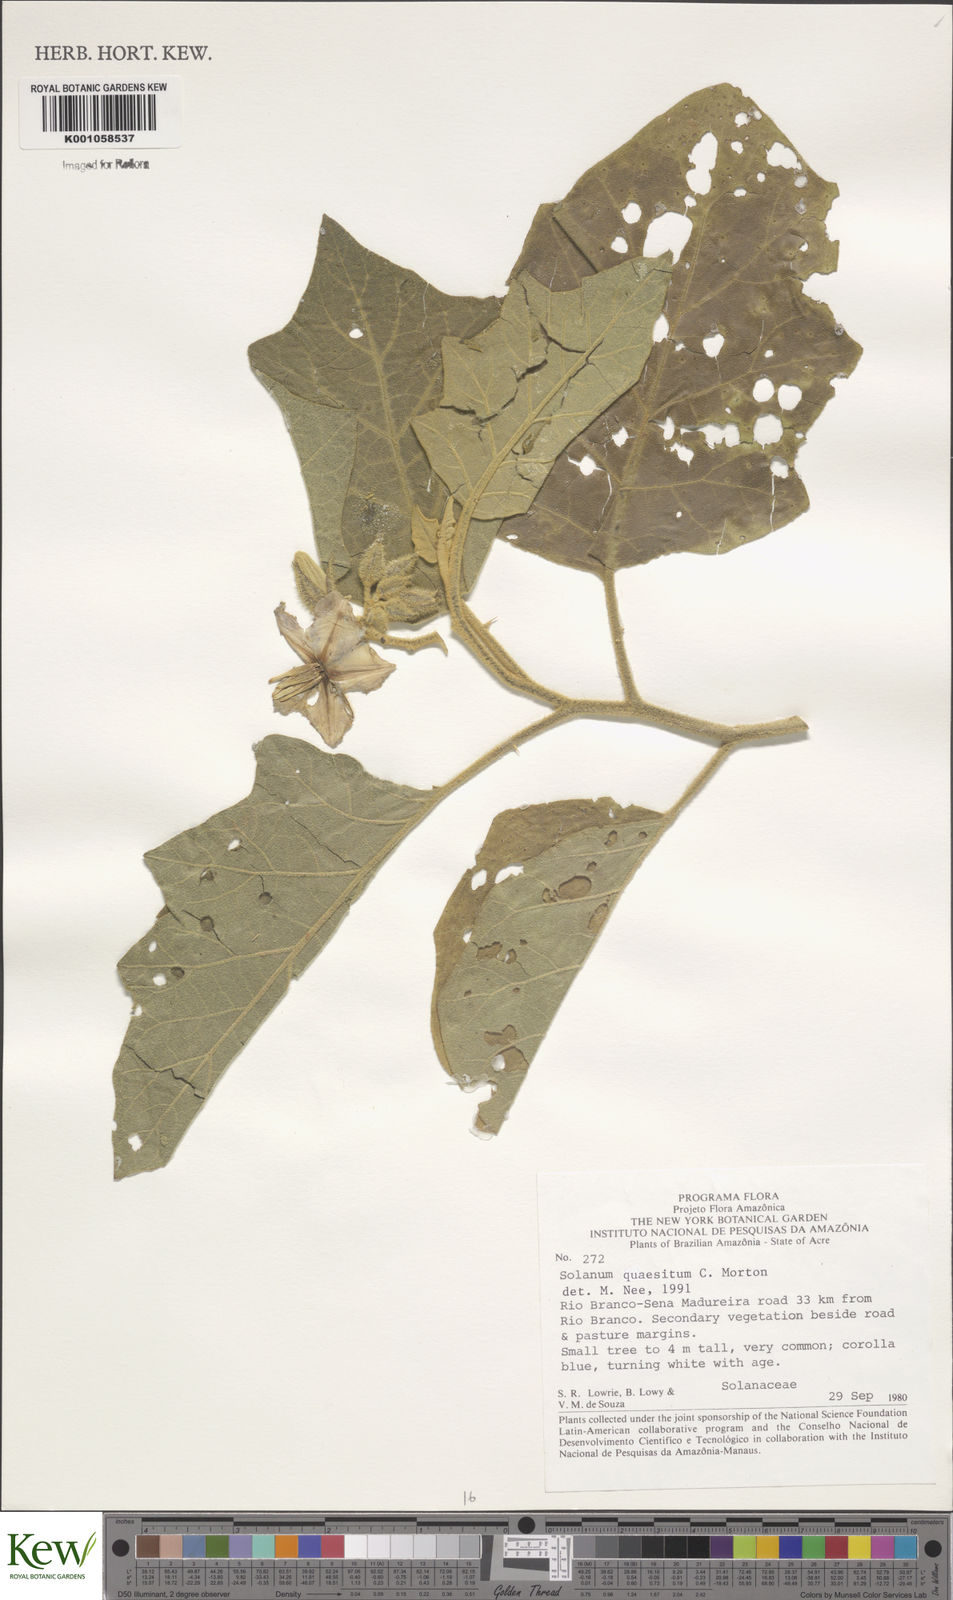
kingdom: Plantae
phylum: Tracheophyta
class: Magnoliopsida
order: Solanales
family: Solanaceae
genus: Solanum
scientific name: Solanum quaesitum
